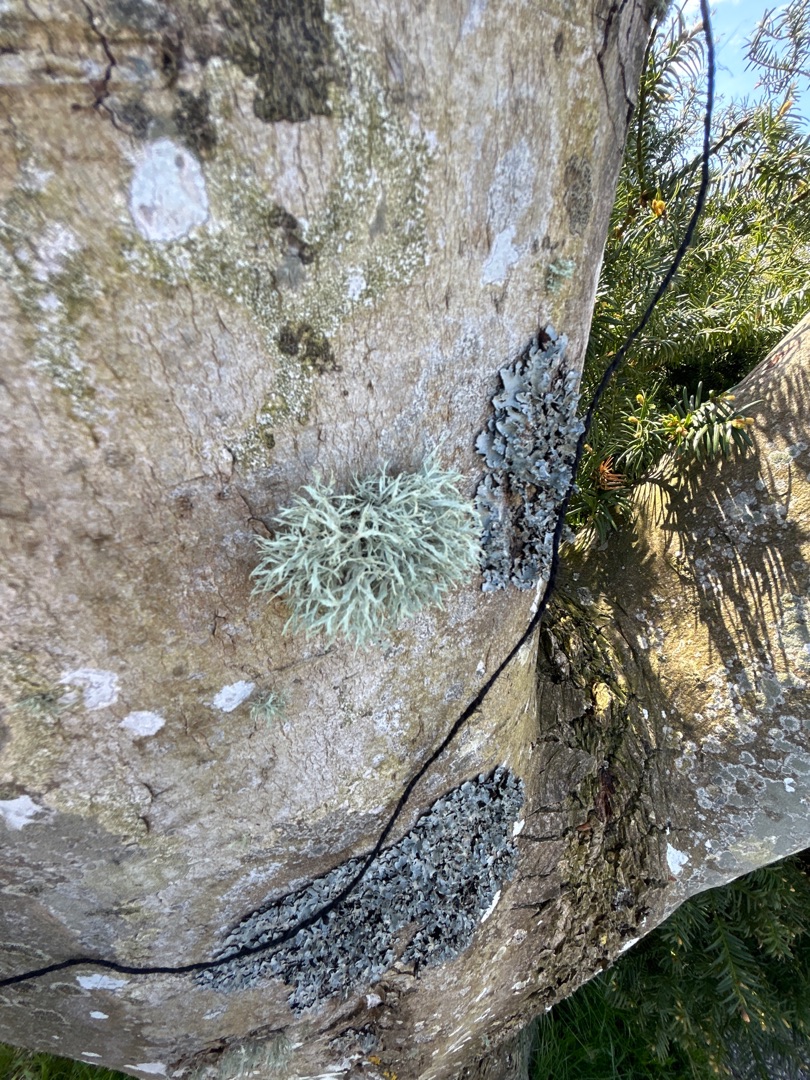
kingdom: Fungi
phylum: Ascomycota
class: Lecanoromycetes
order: Lecanorales
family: Ramalinaceae
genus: Ramalina
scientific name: Ramalina farinacea
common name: Melet grenlav
